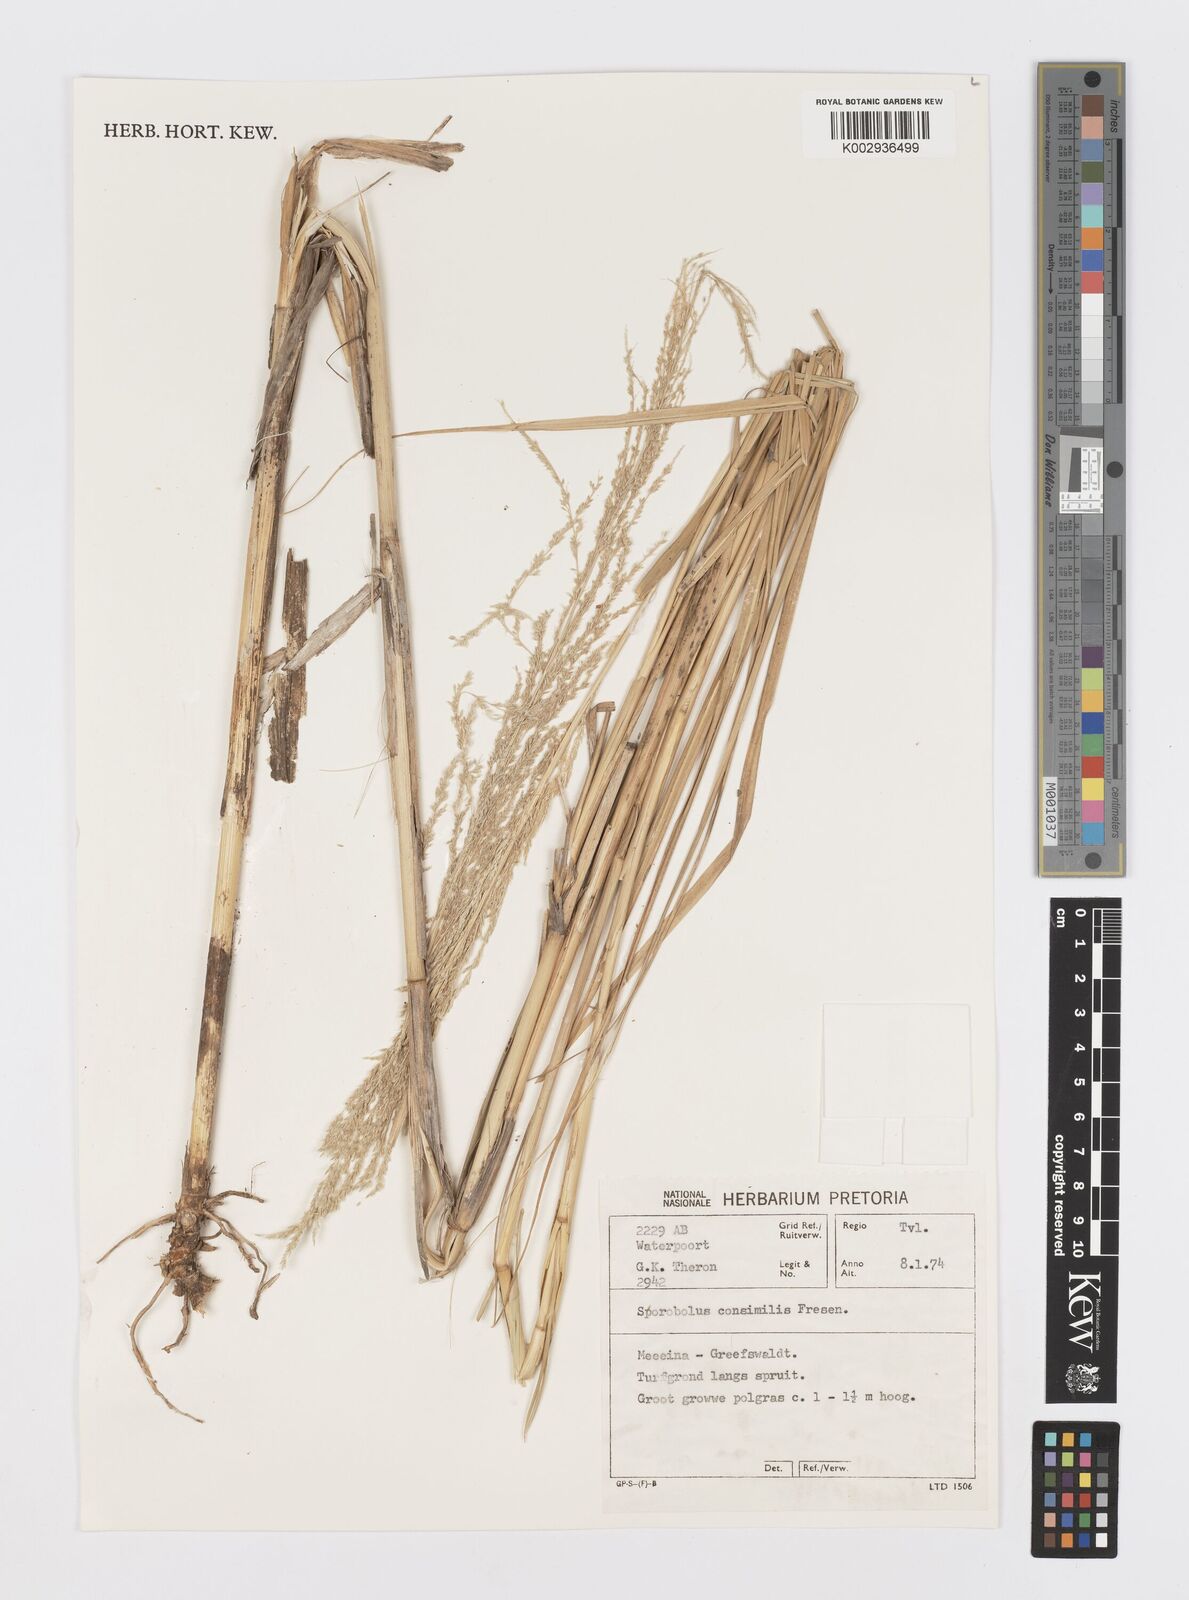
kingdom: Plantae
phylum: Tracheophyta
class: Liliopsida
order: Poales
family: Poaceae
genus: Sporobolus
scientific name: Sporobolus consimilis
